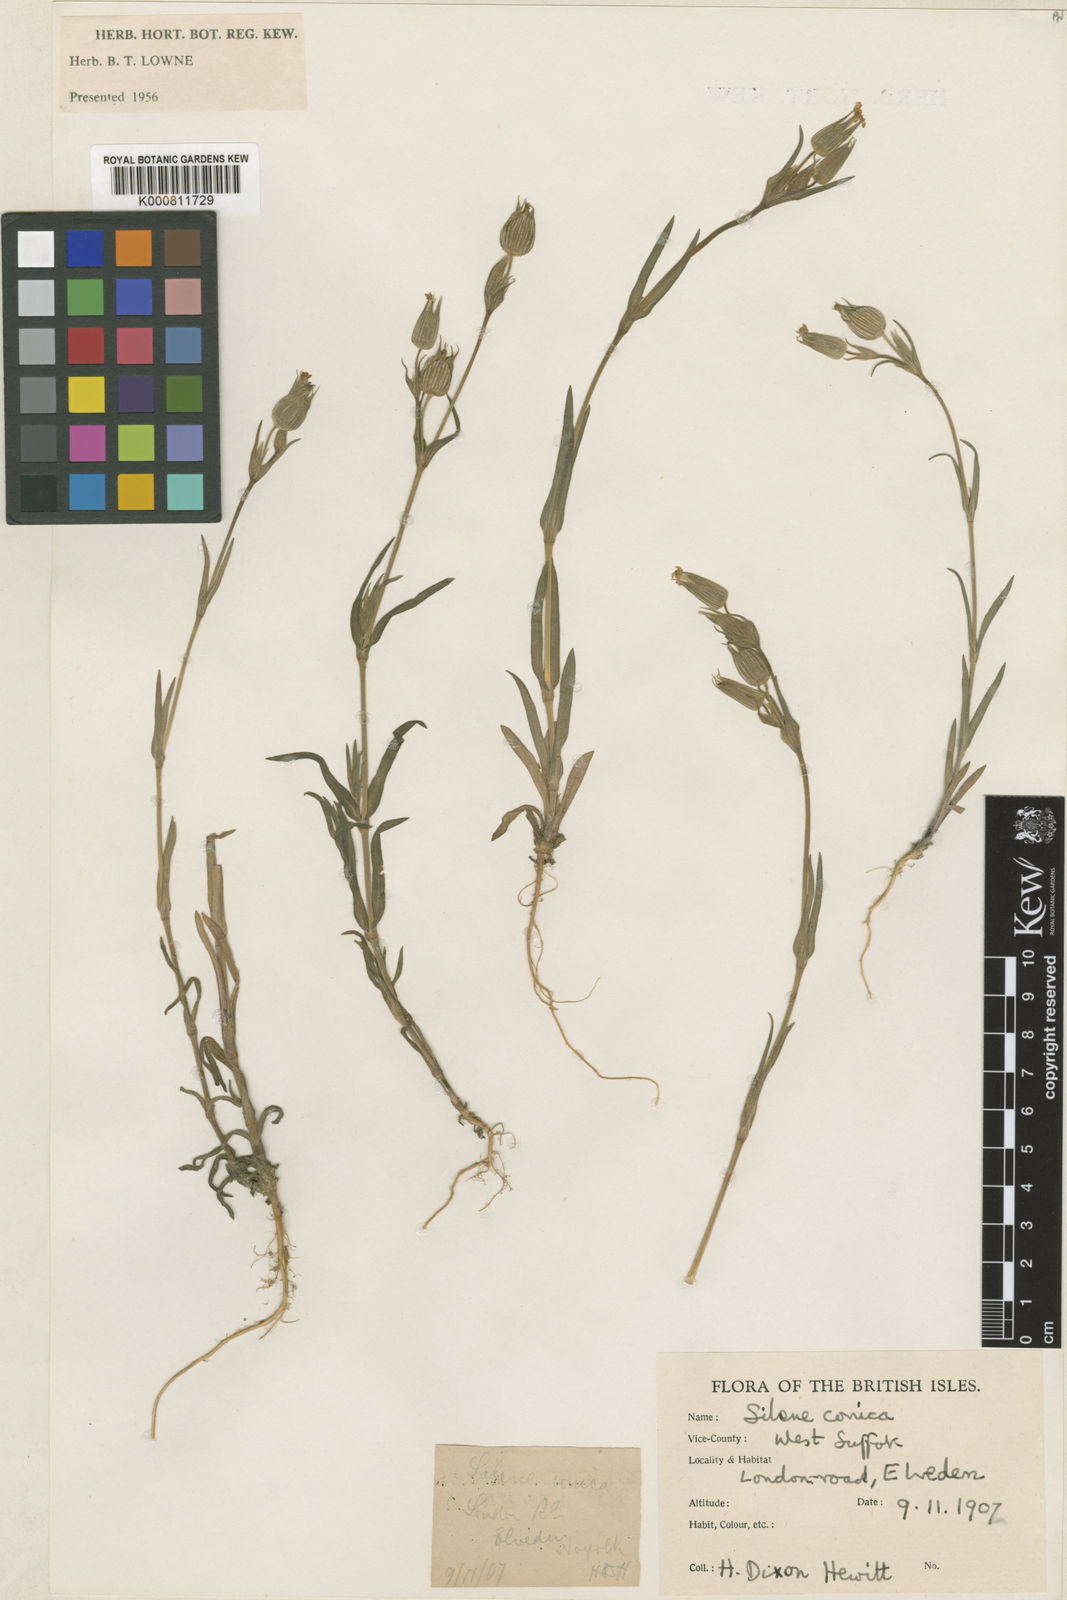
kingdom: Plantae
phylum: Tracheophyta
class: Magnoliopsida
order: Caryophyllales
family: Caryophyllaceae
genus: Silene
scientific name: Silene conica
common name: Sand catchfly
